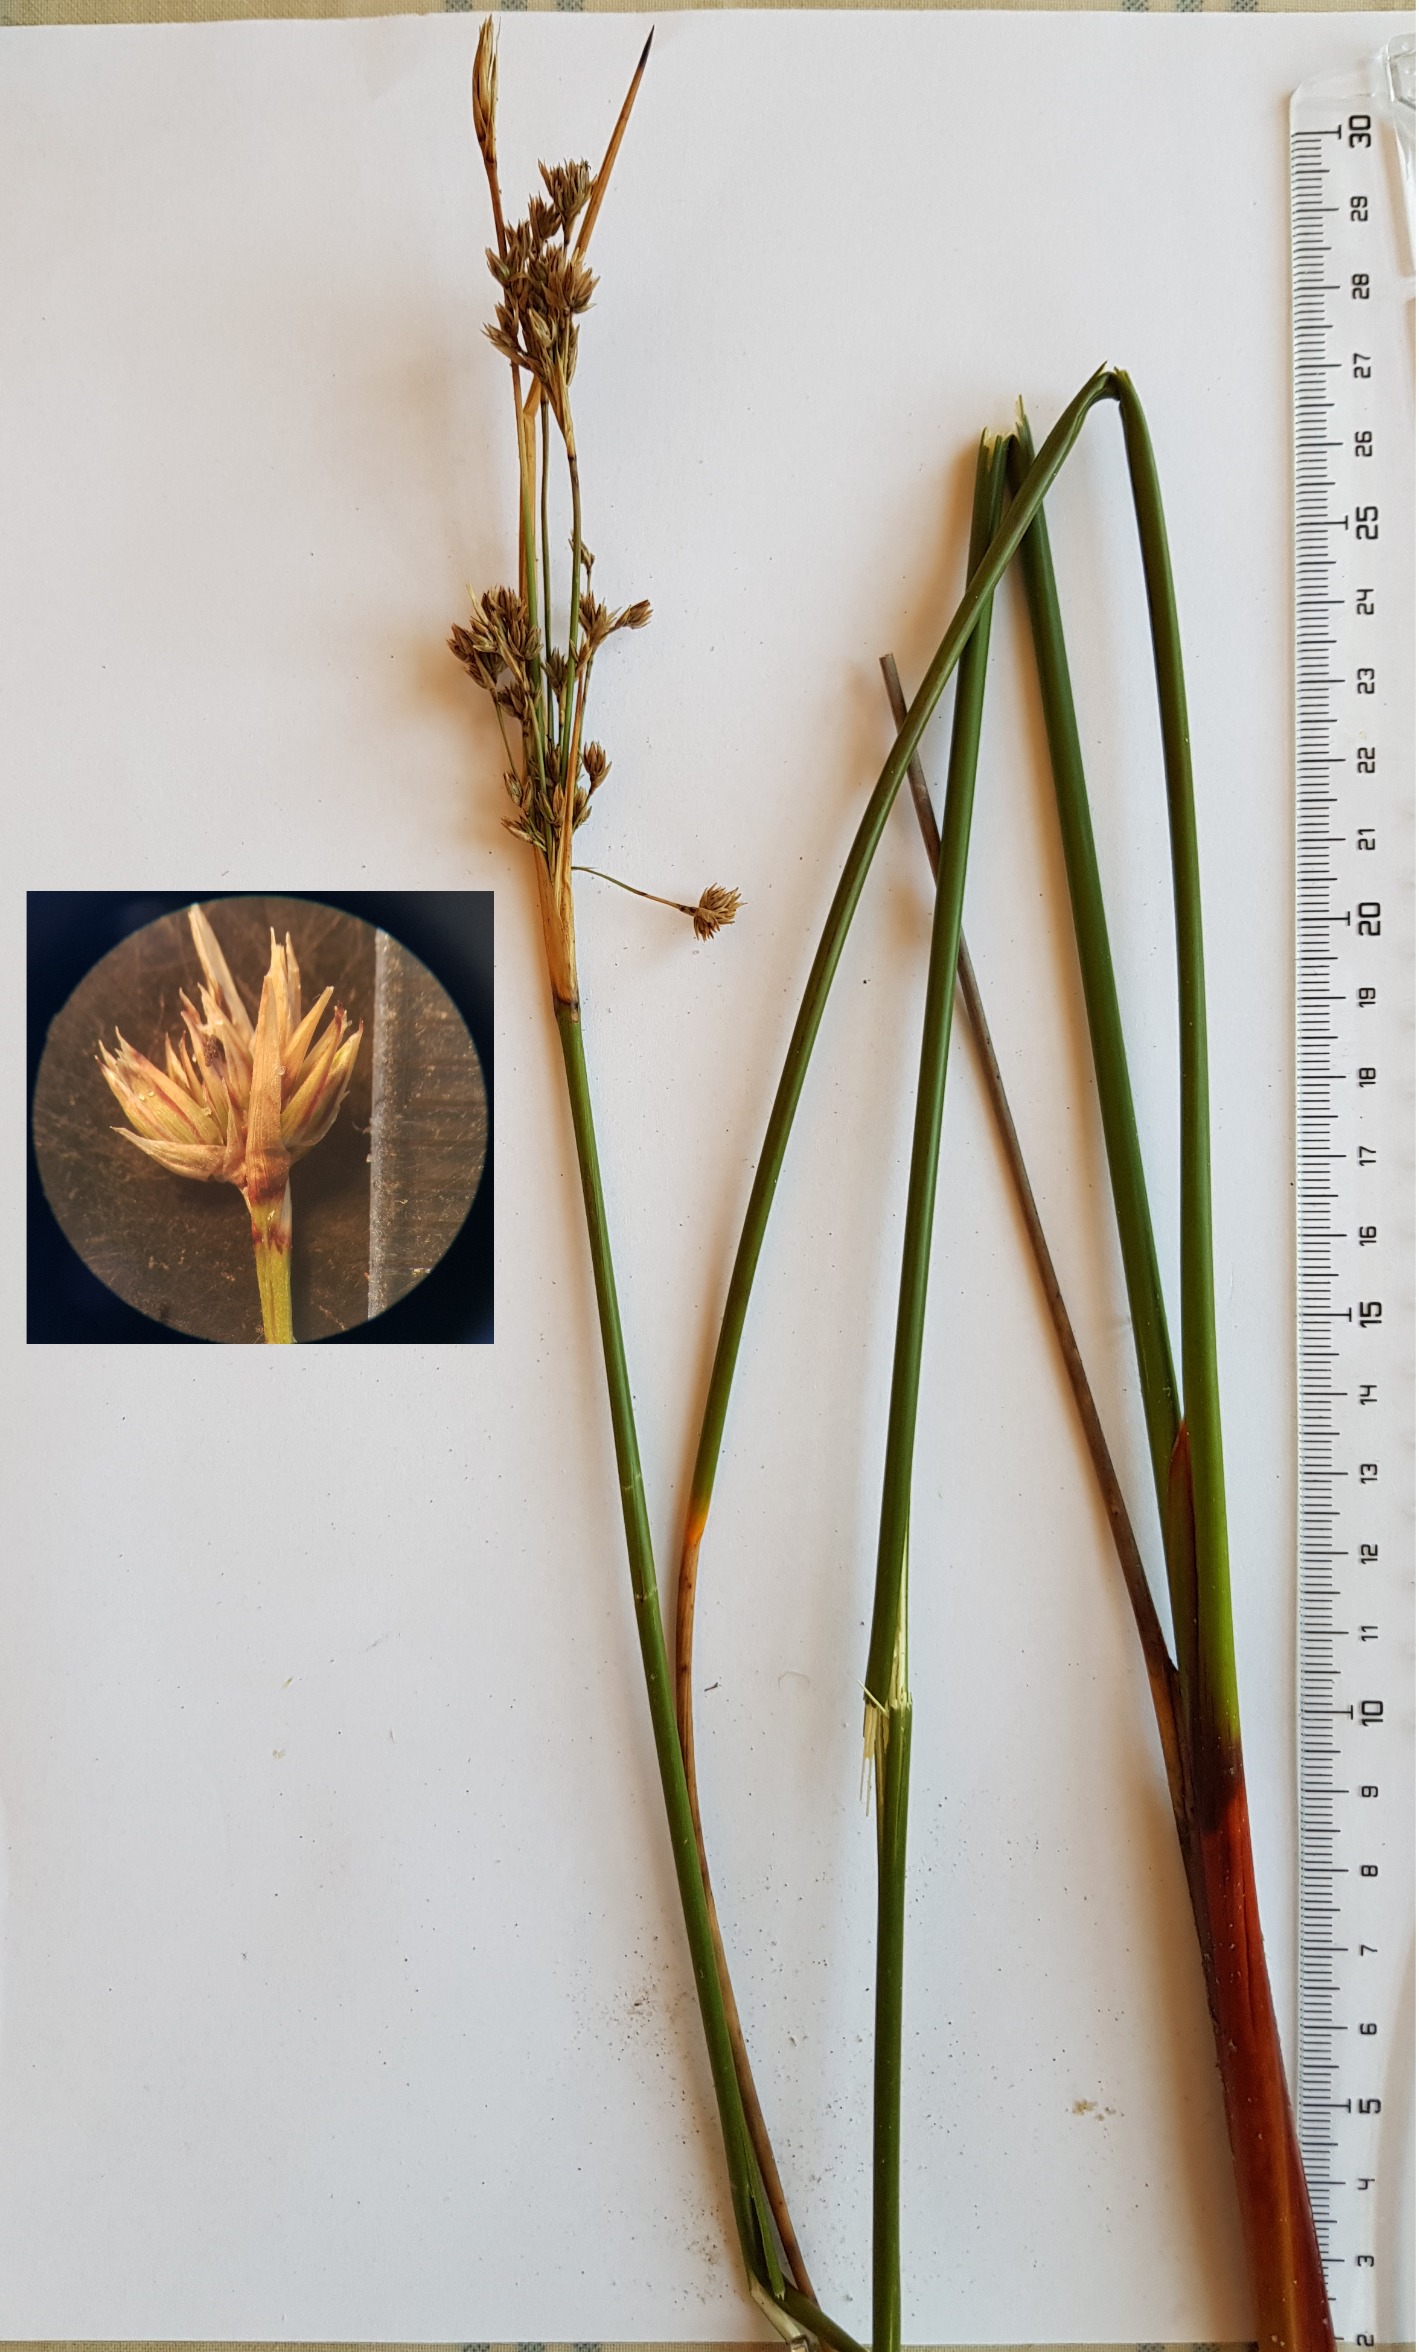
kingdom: Plantae
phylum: Tracheophyta
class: Liliopsida
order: Poales
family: Juncaceae
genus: Juncus
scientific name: Juncus maritimus
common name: Strand-siv
